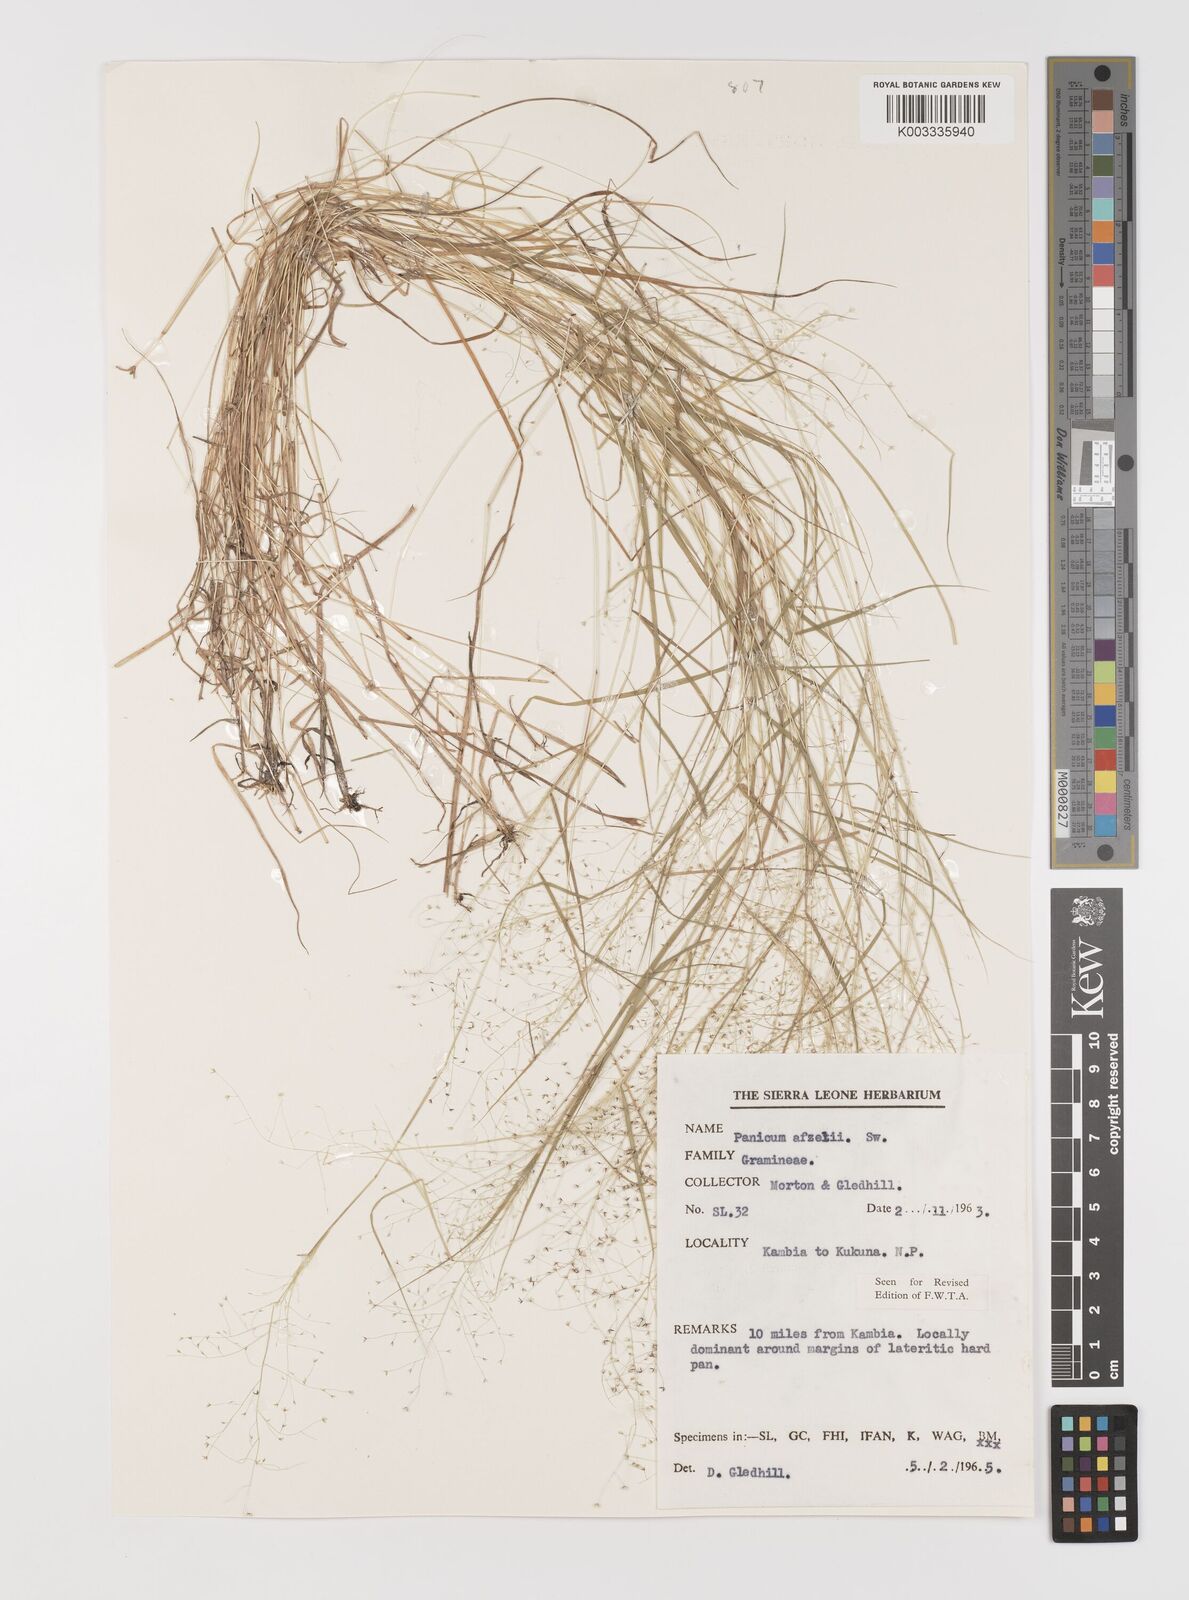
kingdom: Plantae
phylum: Tracheophyta
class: Liliopsida
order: Poales
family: Poaceae
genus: Panicum
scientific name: Panicum afzelii
